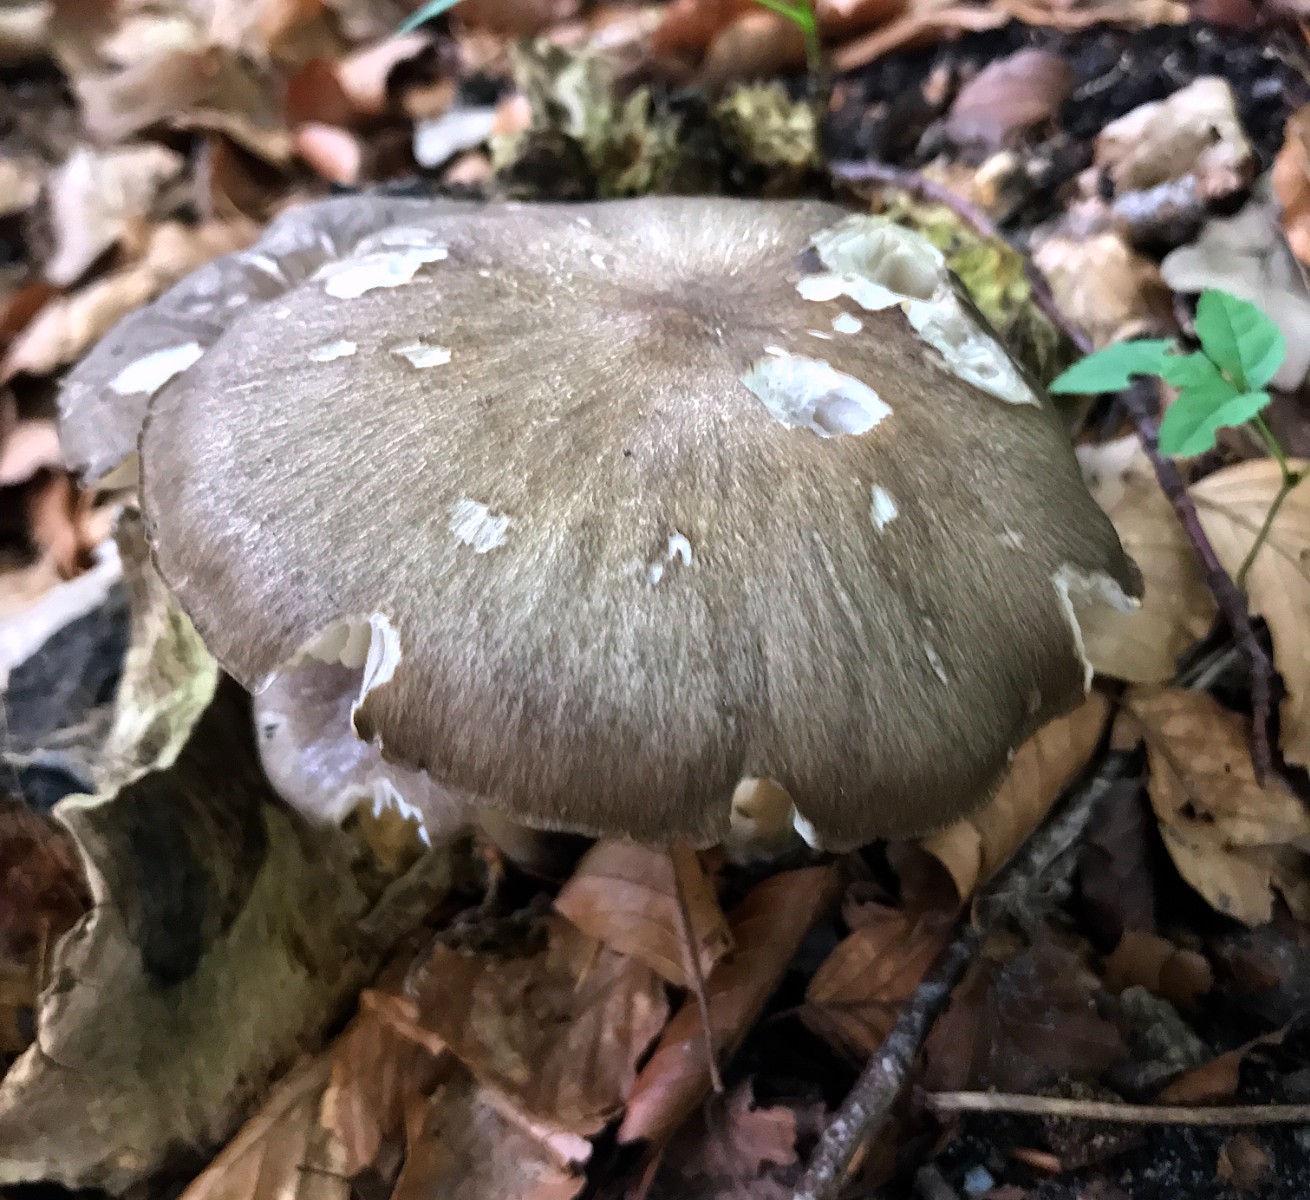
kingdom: Fungi
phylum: Basidiomycota
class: Agaricomycetes
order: Agaricales
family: Tricholomataceae
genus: Megacollybia
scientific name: Megacollybia platyphylla
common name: bredbladet væbnerhat
